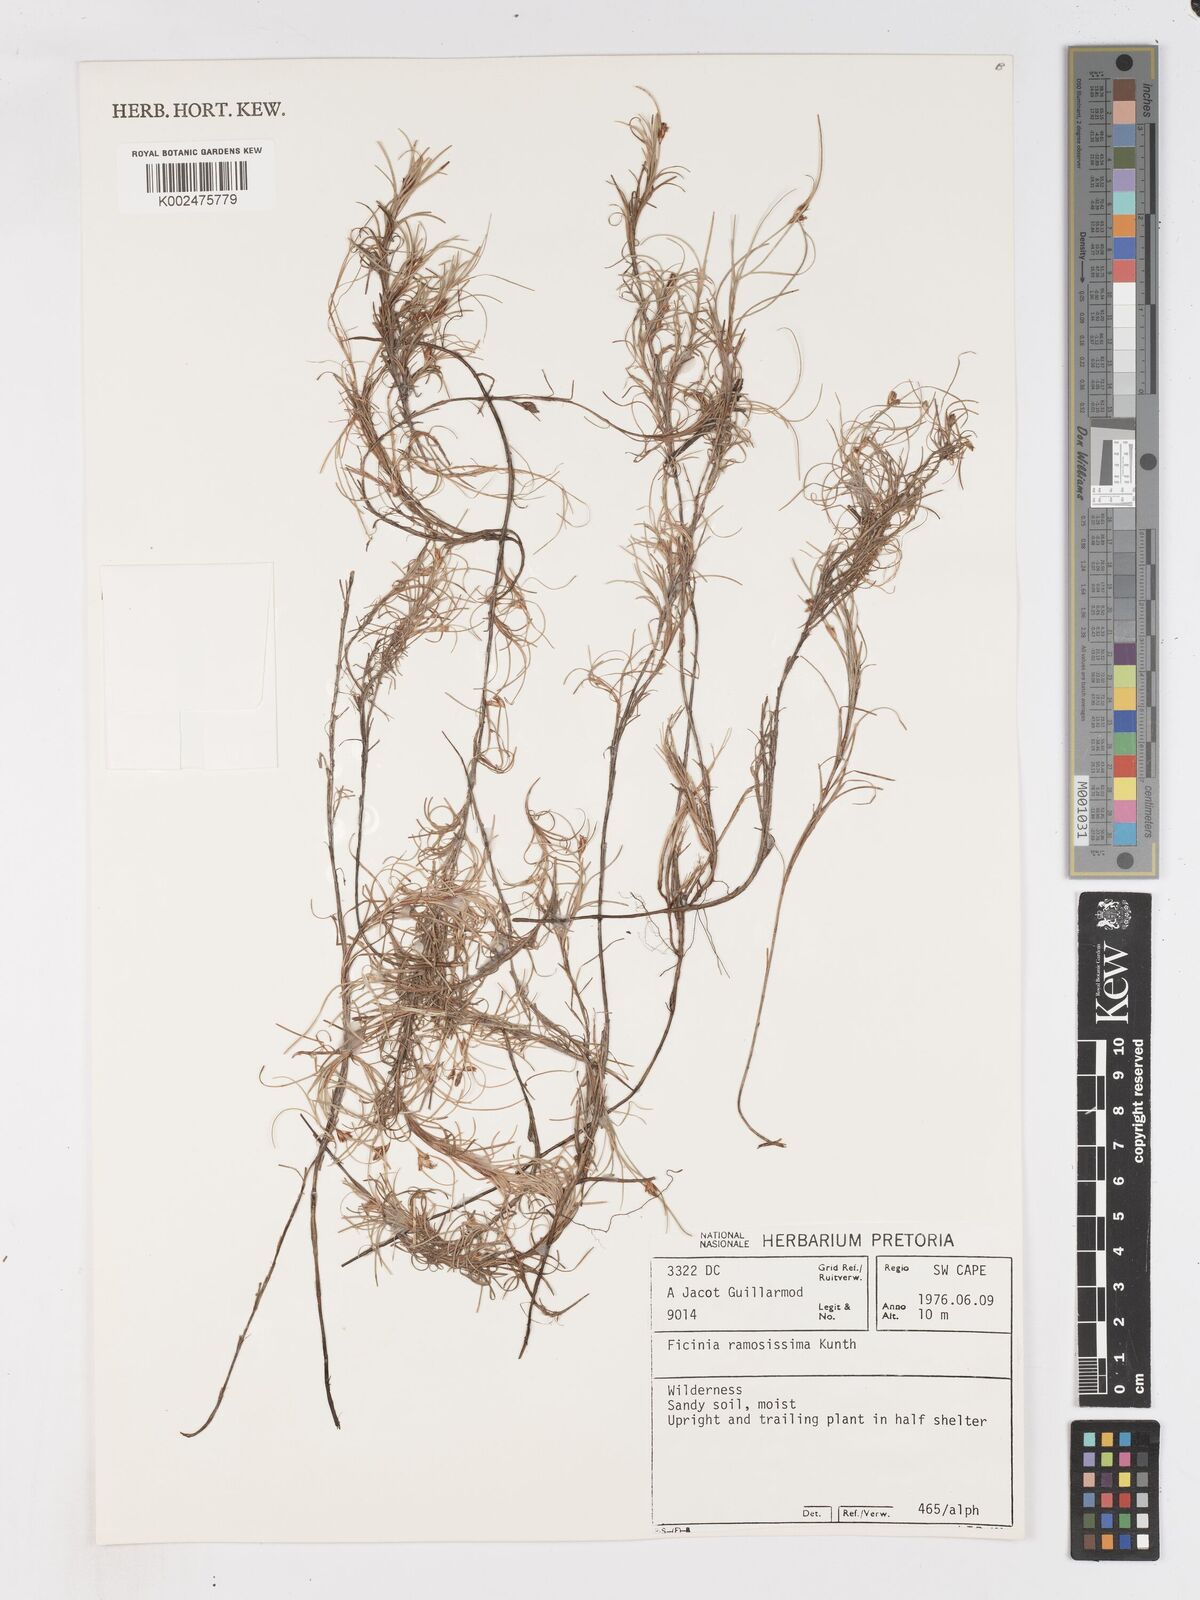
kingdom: Plantae
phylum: Tracheophyta
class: Liliopsida
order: Poales
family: Cyperaceae
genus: Ficinia
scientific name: Ficinia ramosissima
